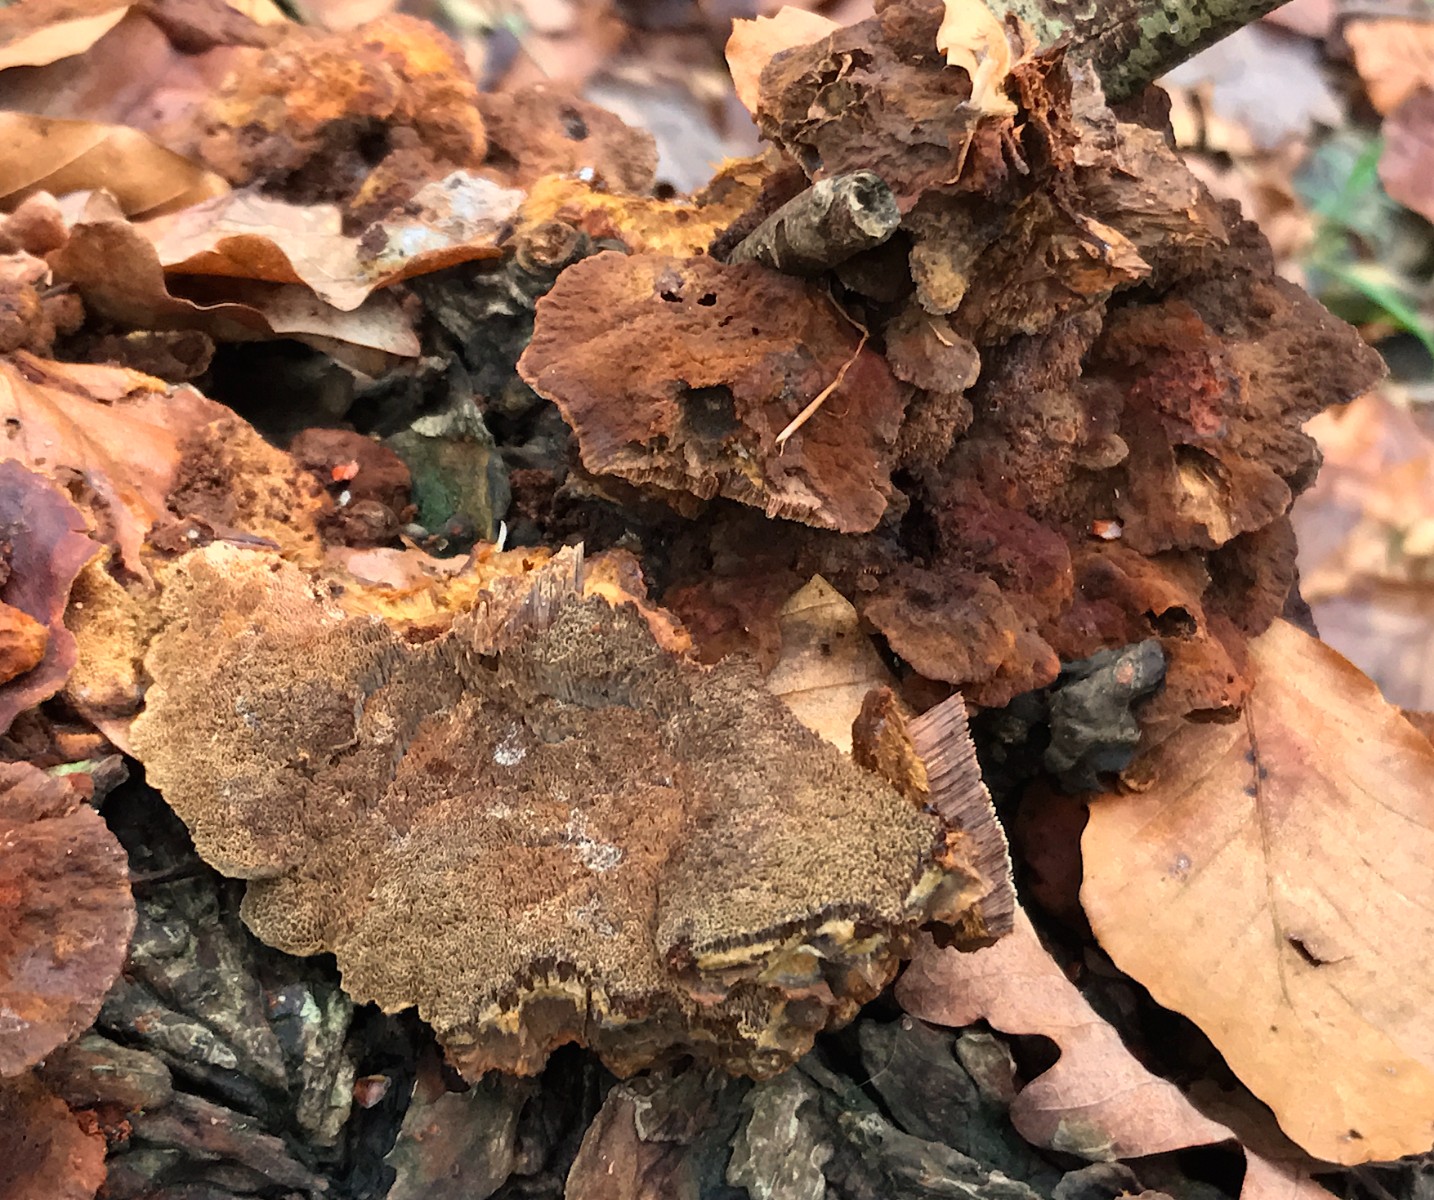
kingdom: Fungi
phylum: Basidiomycota
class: Agaricomycetes
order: Hymenochaetales
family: Hymenochaetaceae
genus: Xanthoporia
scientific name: Xanthoporia radiata
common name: elle-spejlporesvamp
